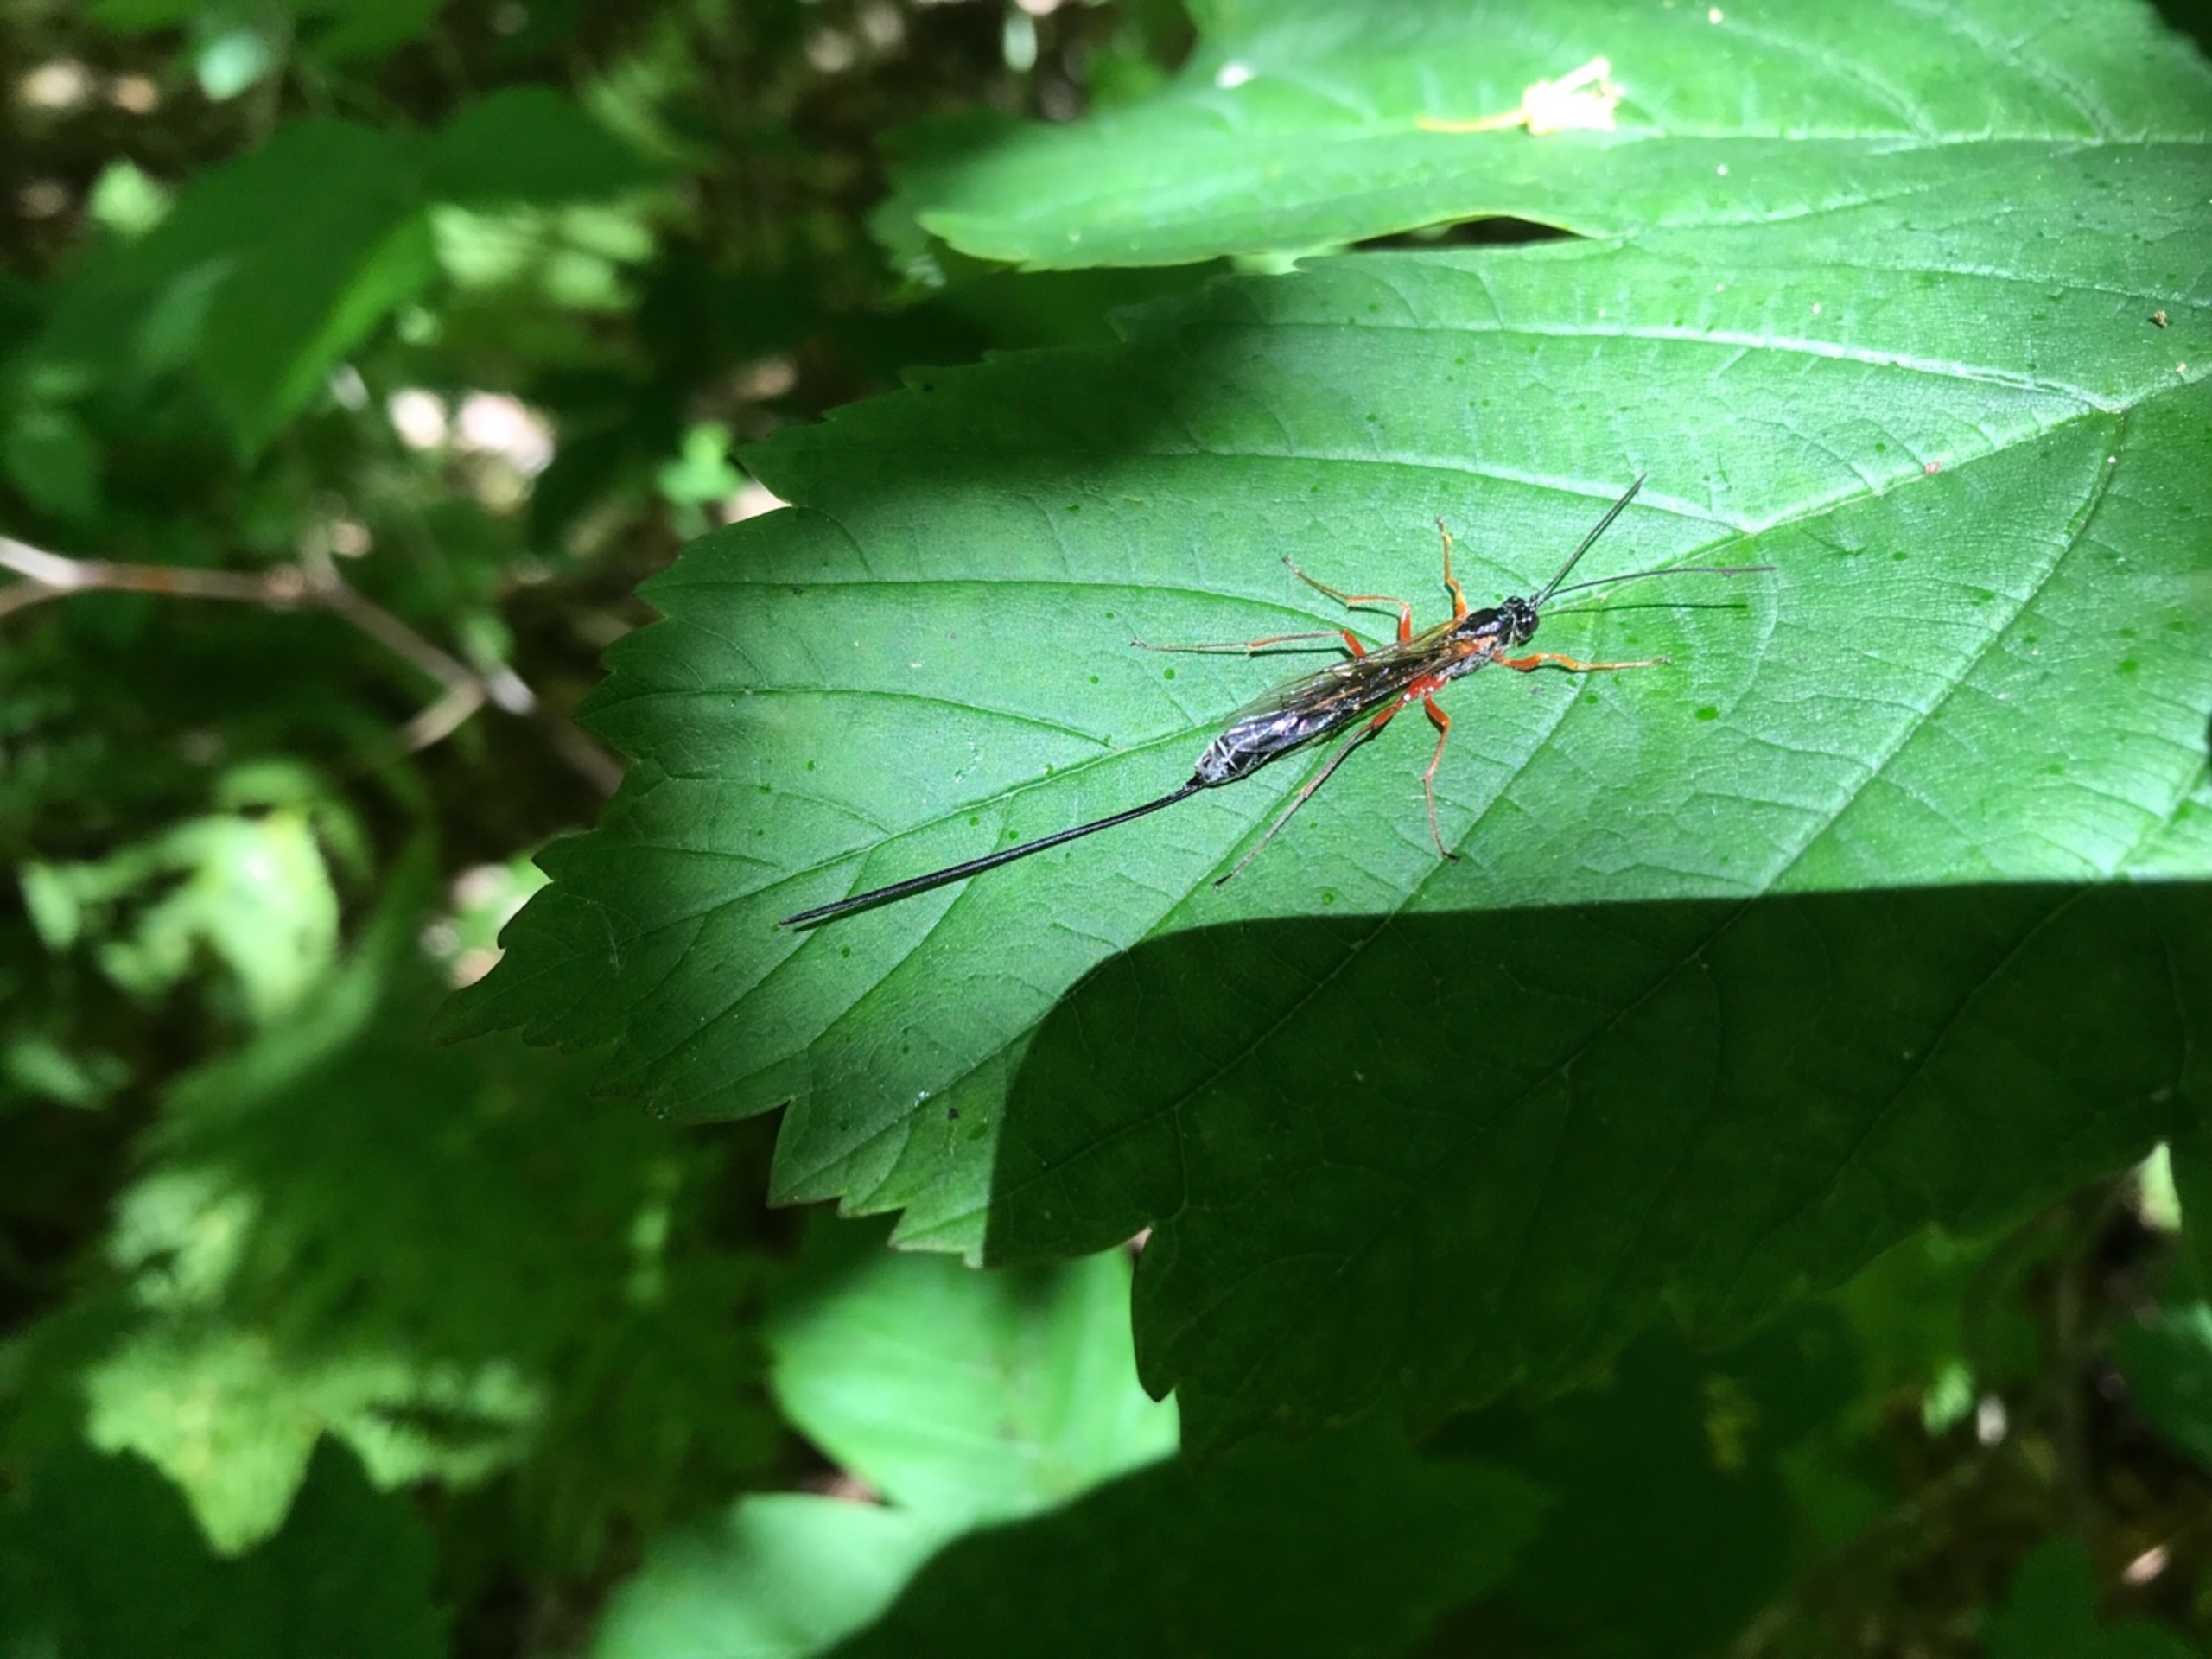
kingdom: Animalia
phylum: Arthropoda
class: Insecta
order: Hymenoptera
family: Ichneumonidae
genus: Rhyssella
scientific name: Rhyssella approximator
